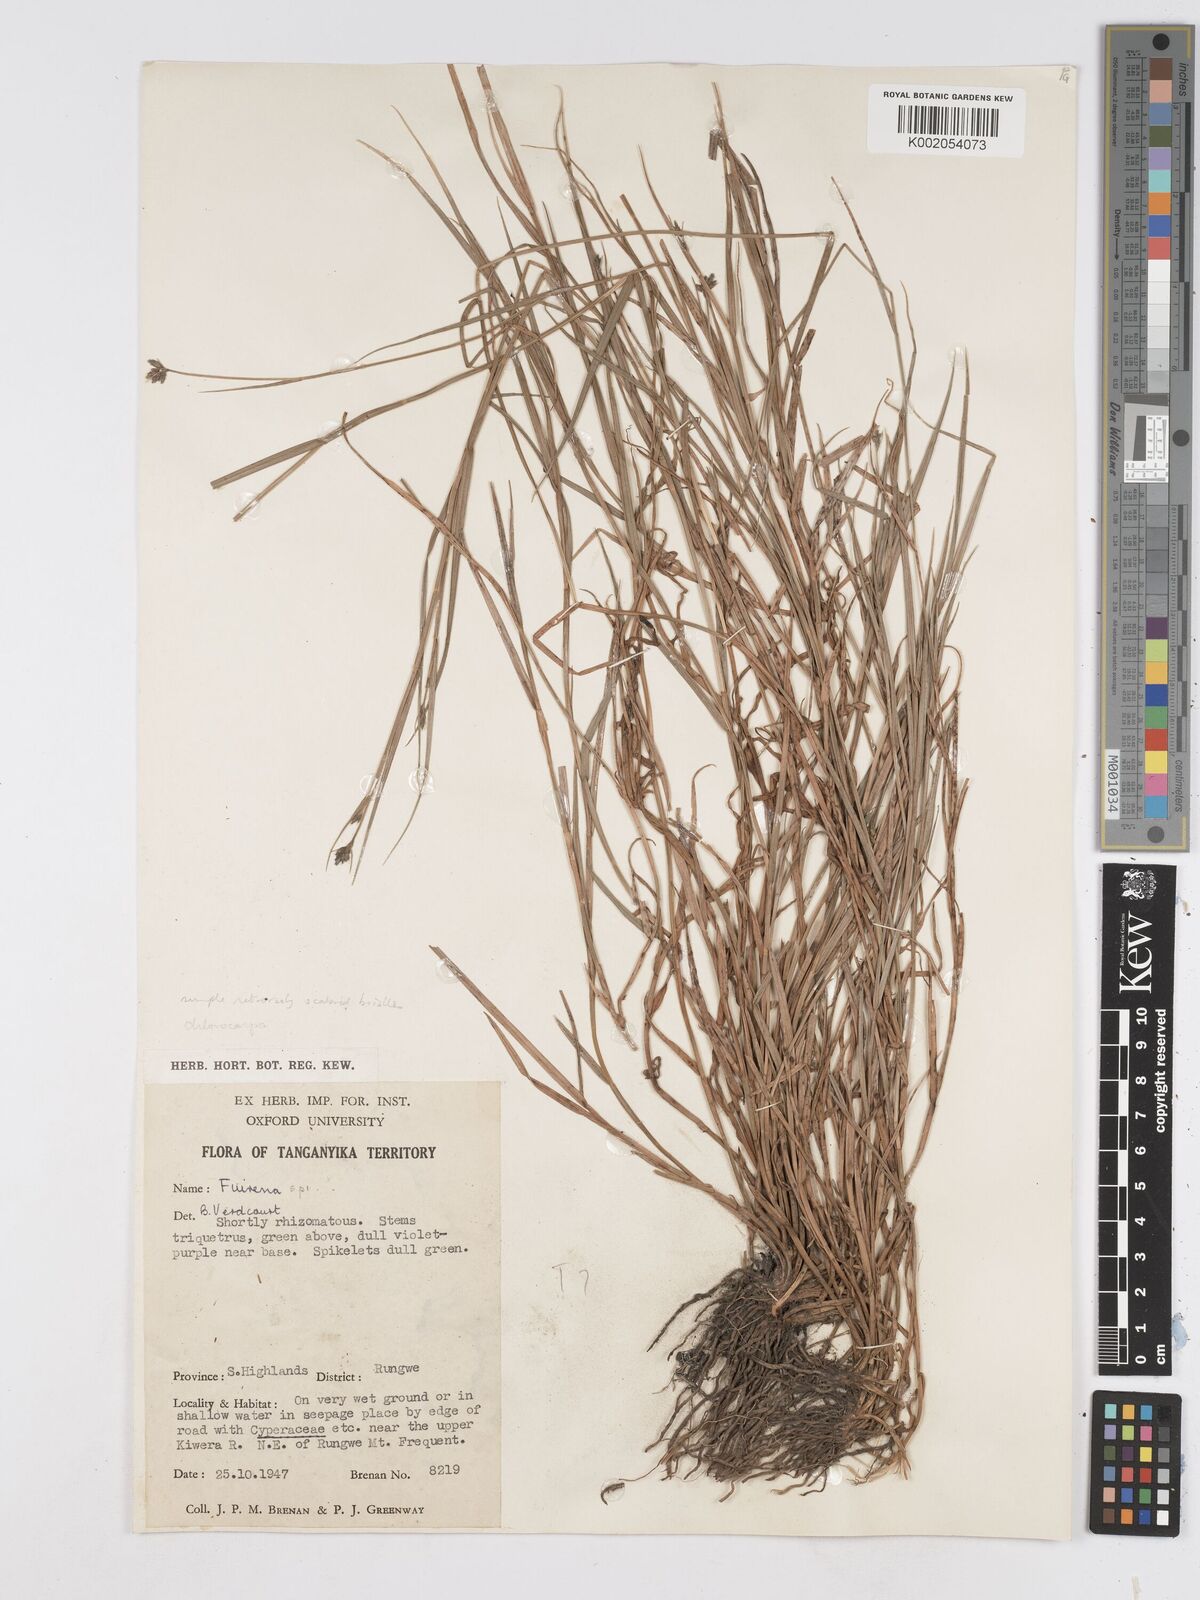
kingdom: Plantae
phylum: Tracheophyta
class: Liliopsida
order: Poales
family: Cyperaceae
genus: Fuirena
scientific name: Fuirena stricta
